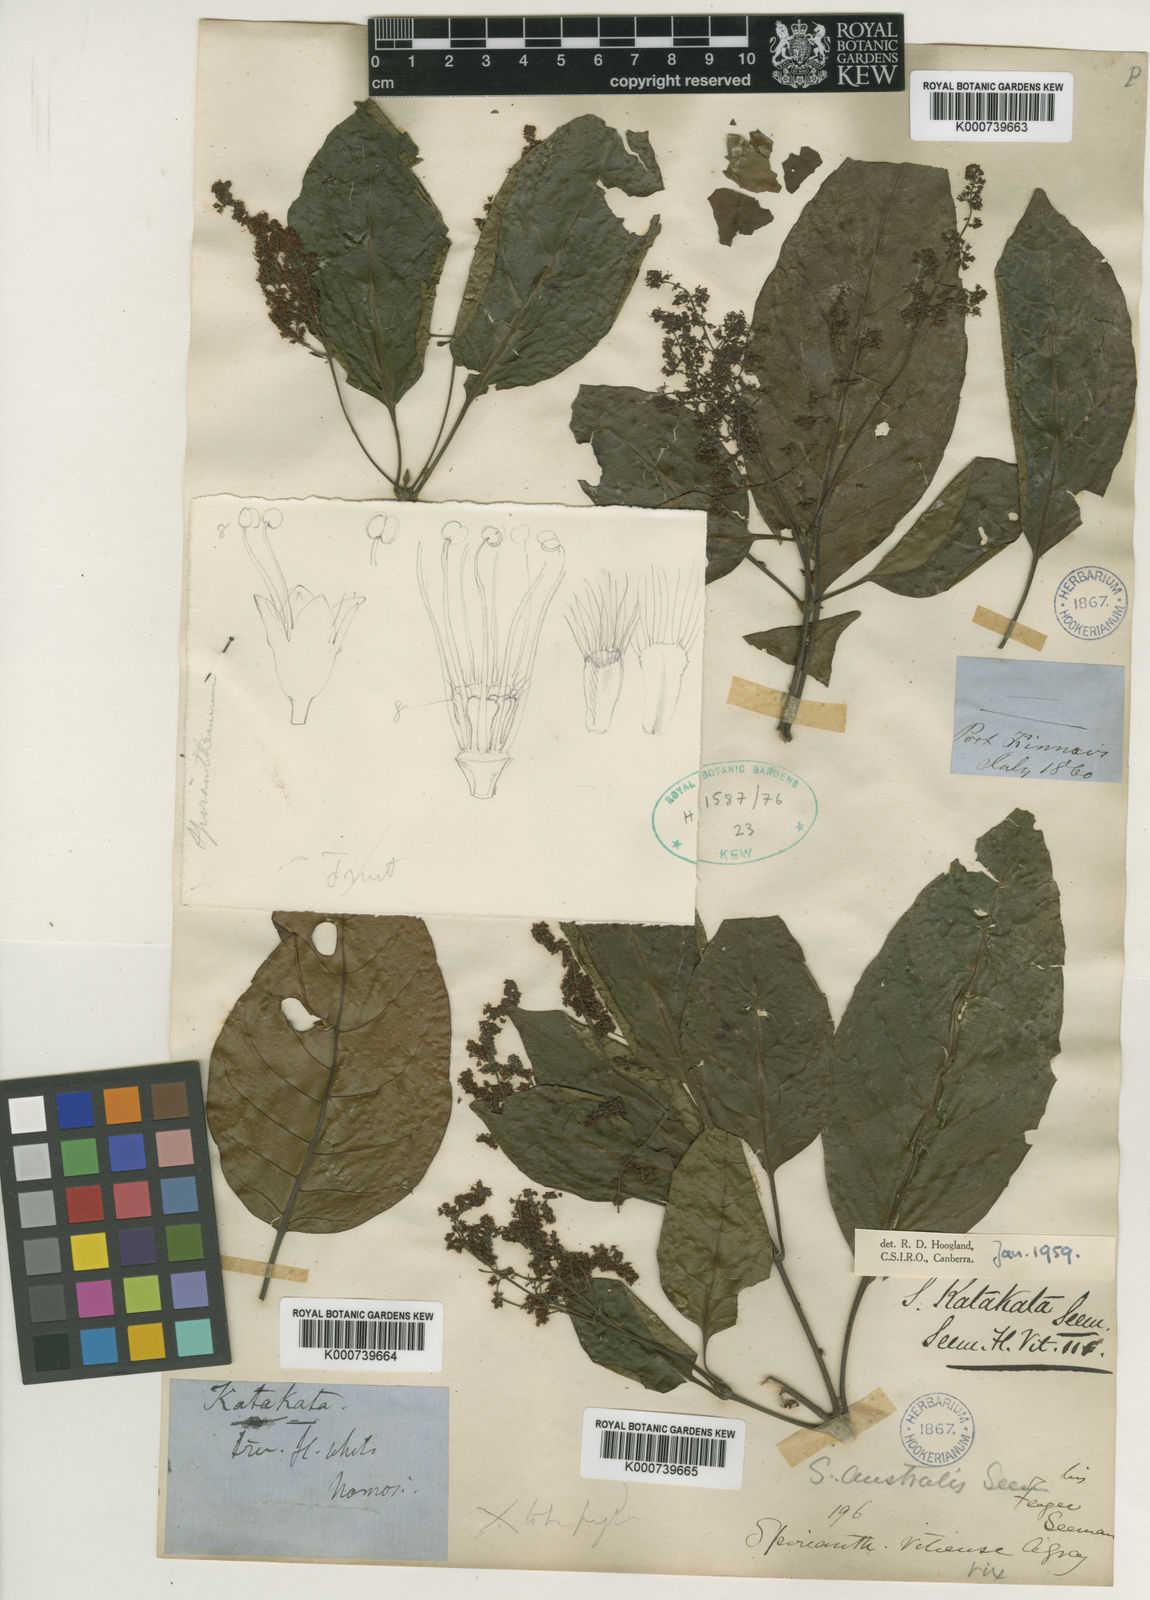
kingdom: Plantae
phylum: Tracheophyta
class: Magnoliopsida
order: Oxalidales
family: Cunoniaceae
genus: Spiraeanthemum
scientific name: Spiraeanthemum katakata
